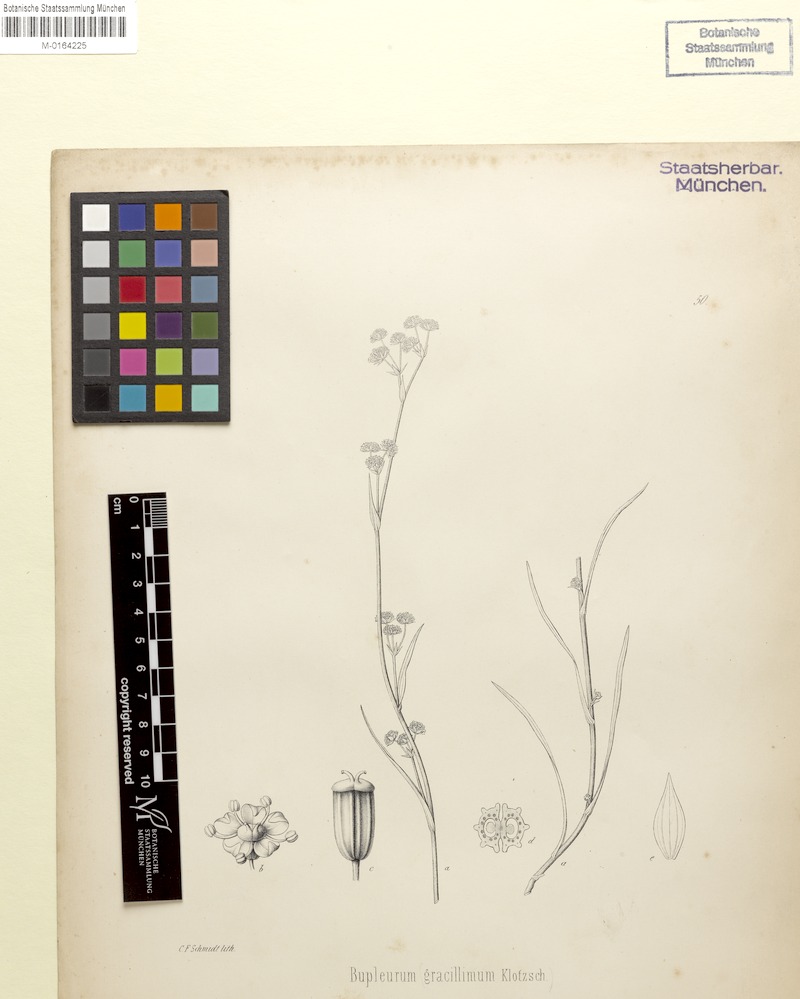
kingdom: Plantae
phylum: Tracheophyta
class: Magnoliopsida
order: Apiales
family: Apiaceae
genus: Bupleurum
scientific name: Bupleurum gracillimum
